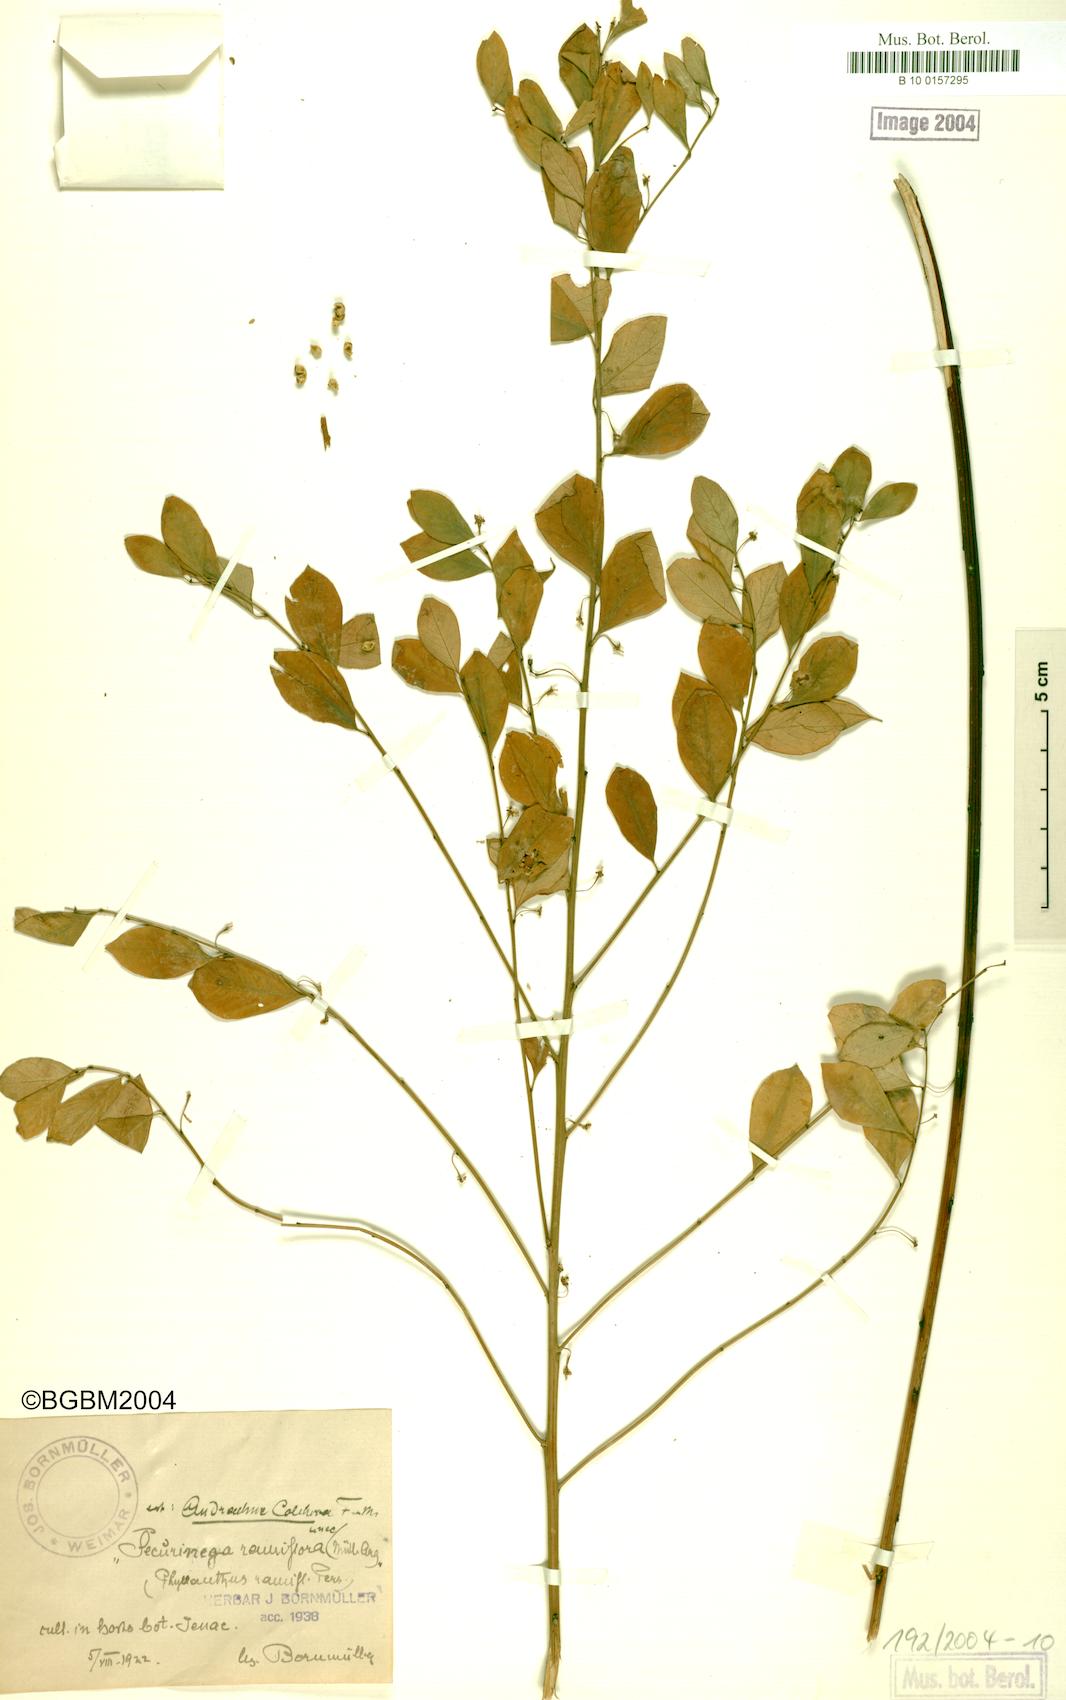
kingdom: Plantae
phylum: Tracheophyta
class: Magnoliopsida
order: Malpighiales
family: Euphorbiaceae
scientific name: Euphorbiaceae
